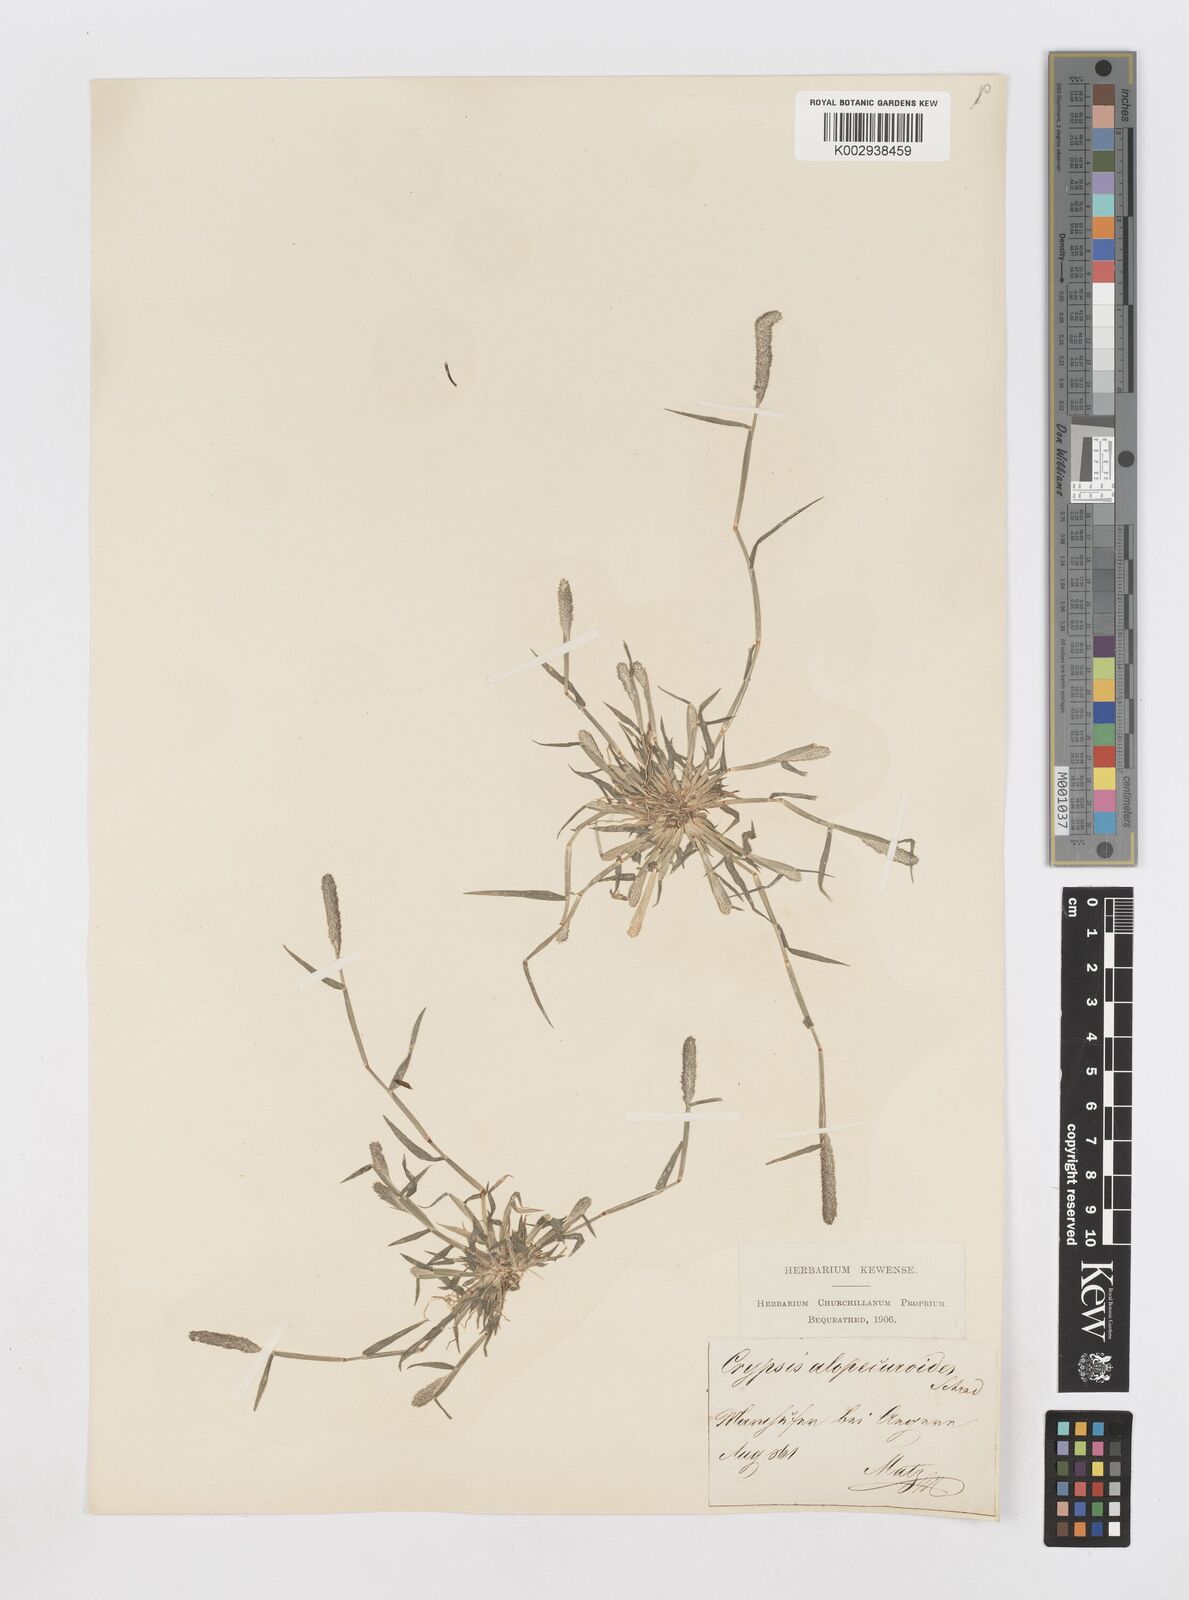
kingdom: Plantae
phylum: Tracheophyta
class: Liliopsida
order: Poales
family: Poaceae
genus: Sporobolus
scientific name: Sporobolus alopecuroides
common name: Foxtail pricklegrass
